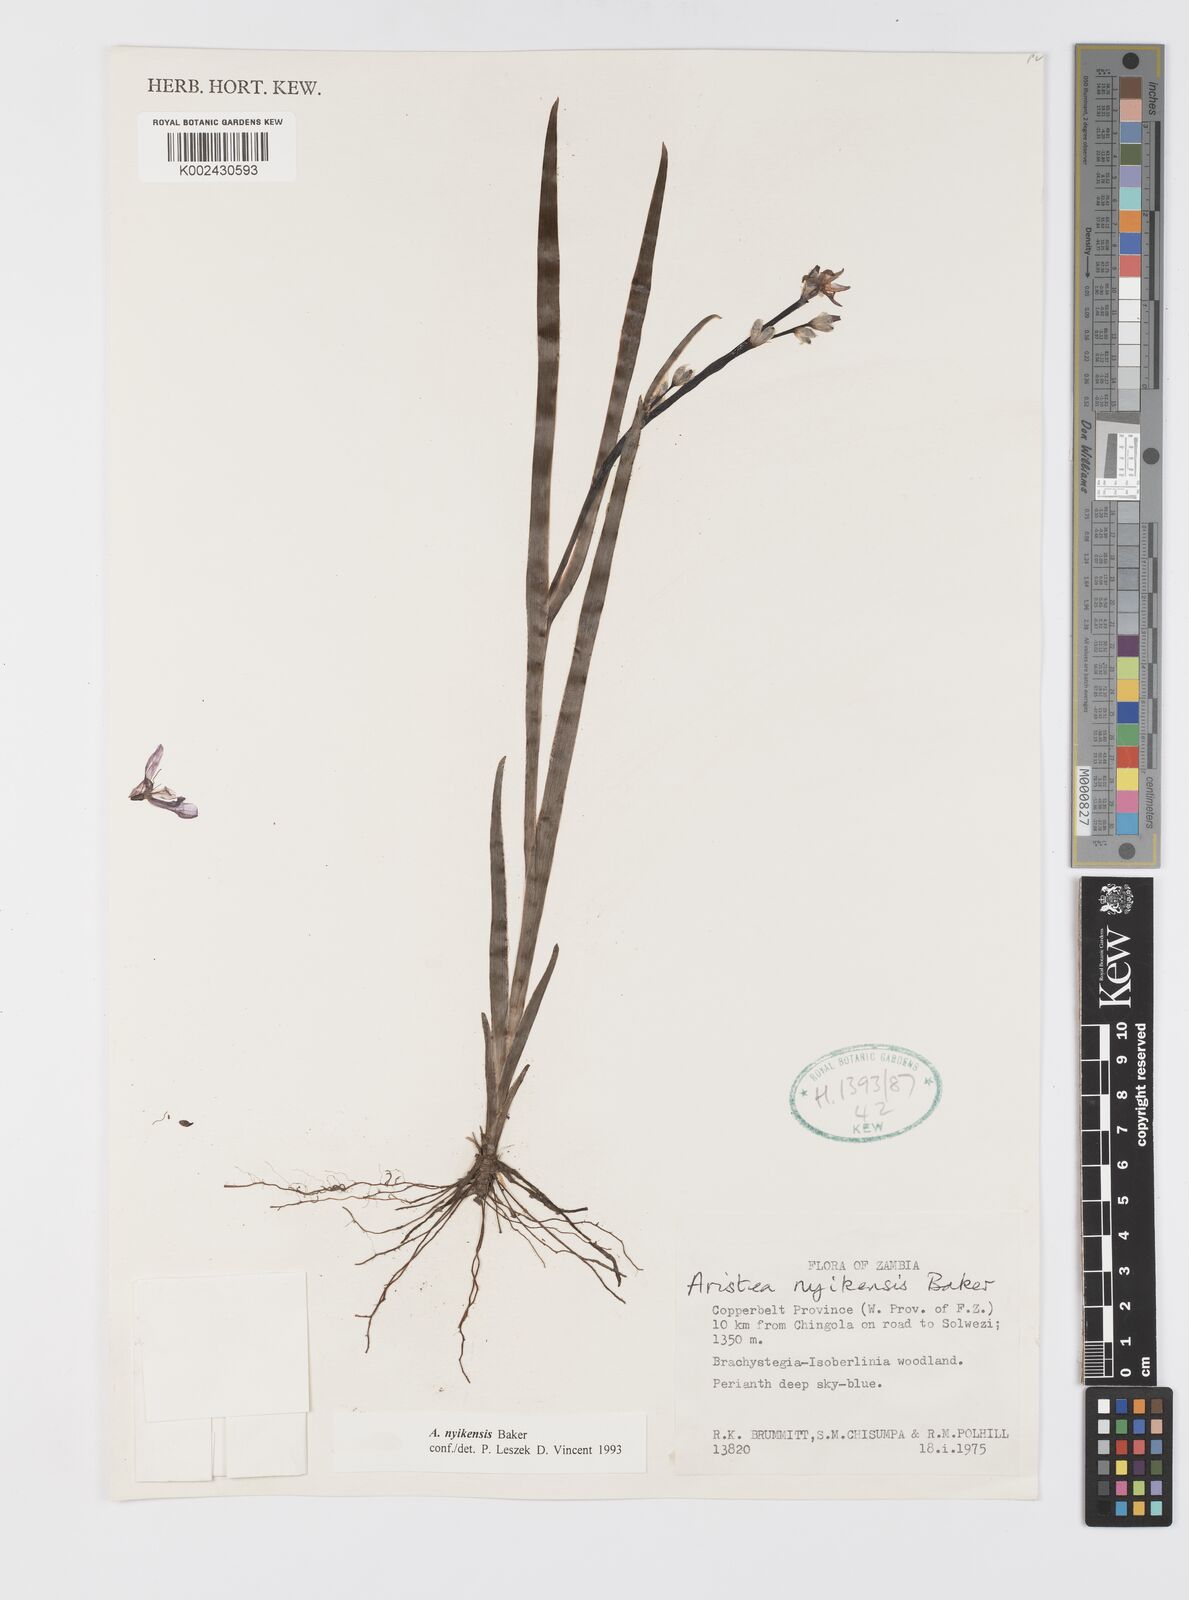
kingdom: Plantae
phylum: Tracheophyta
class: Liliopsida
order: Asparagales
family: Iridaceae
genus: Aristea
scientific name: Aristea nyikensis
